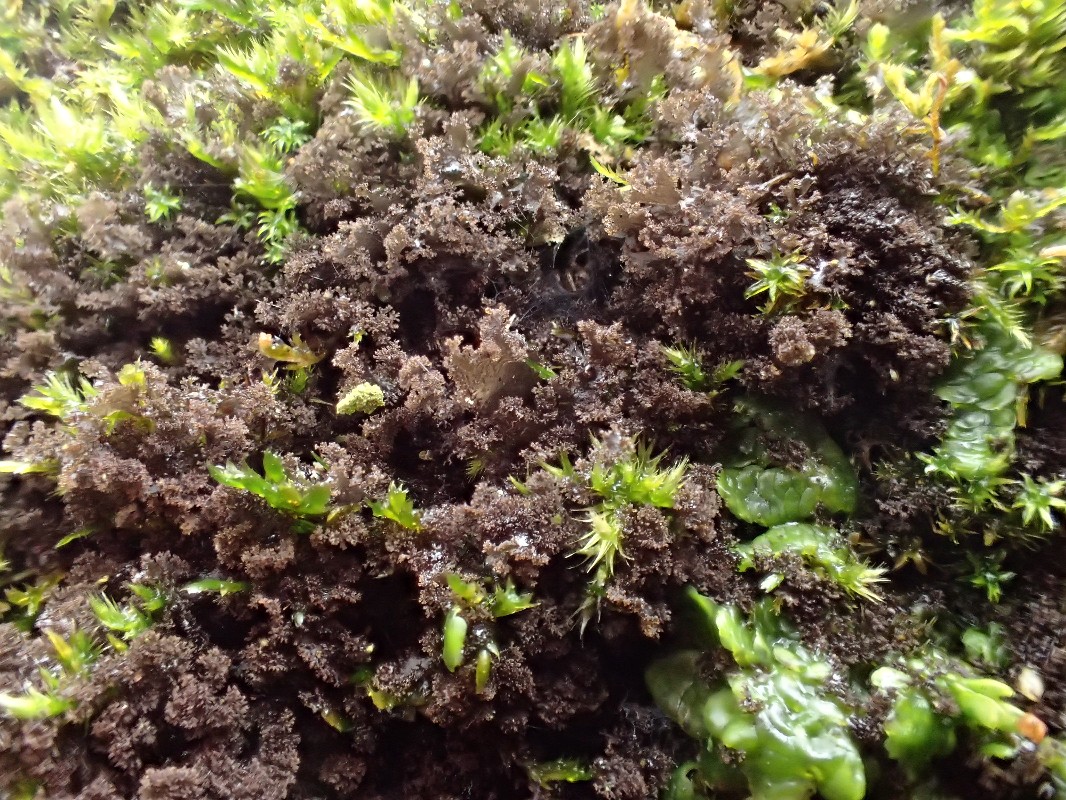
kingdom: Fungi
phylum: Ascomycota
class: Lecanoromycetes
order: Peltigerales
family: Collemataceae
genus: Scytinium
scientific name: Scytinium lichenoides
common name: frynset hindelav
